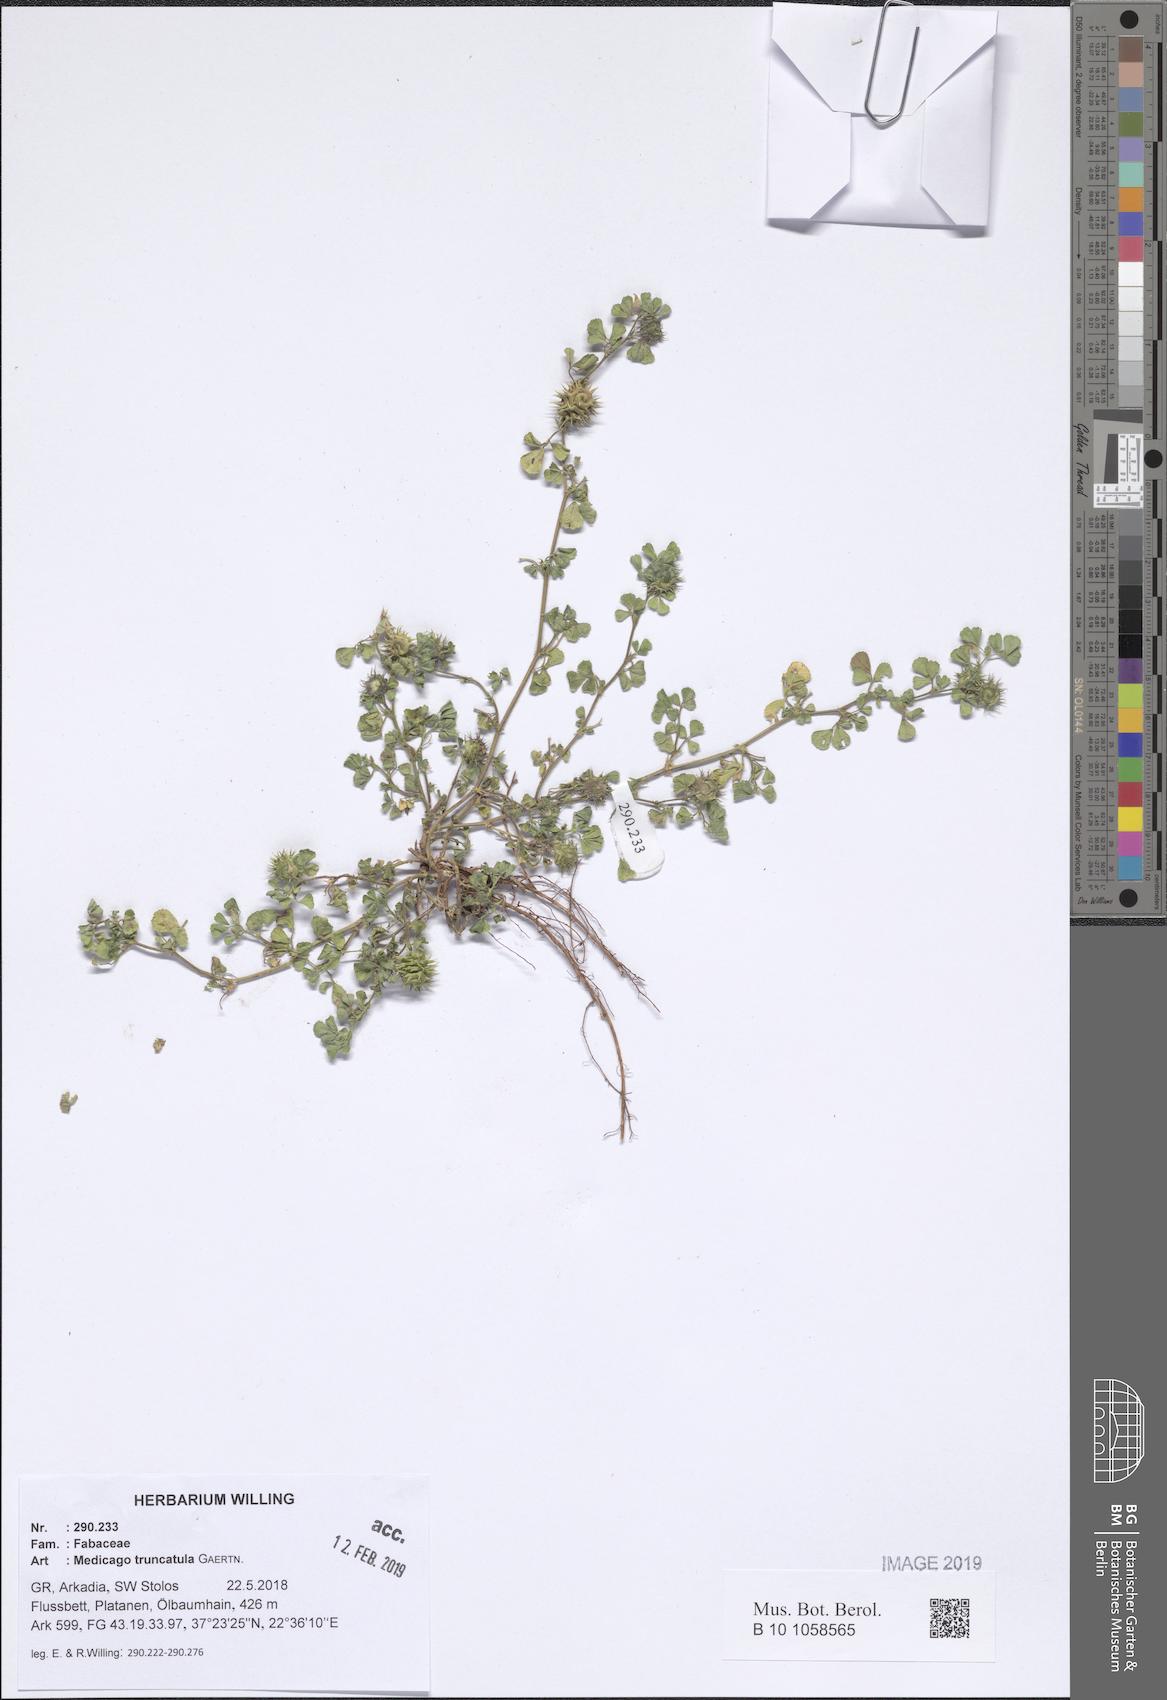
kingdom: Plantae
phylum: Tracheophyta
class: Magnoliopsida
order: Fabales
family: Fabaceae
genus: Medicago
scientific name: Medicago truncatula
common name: Strong-spined medick
